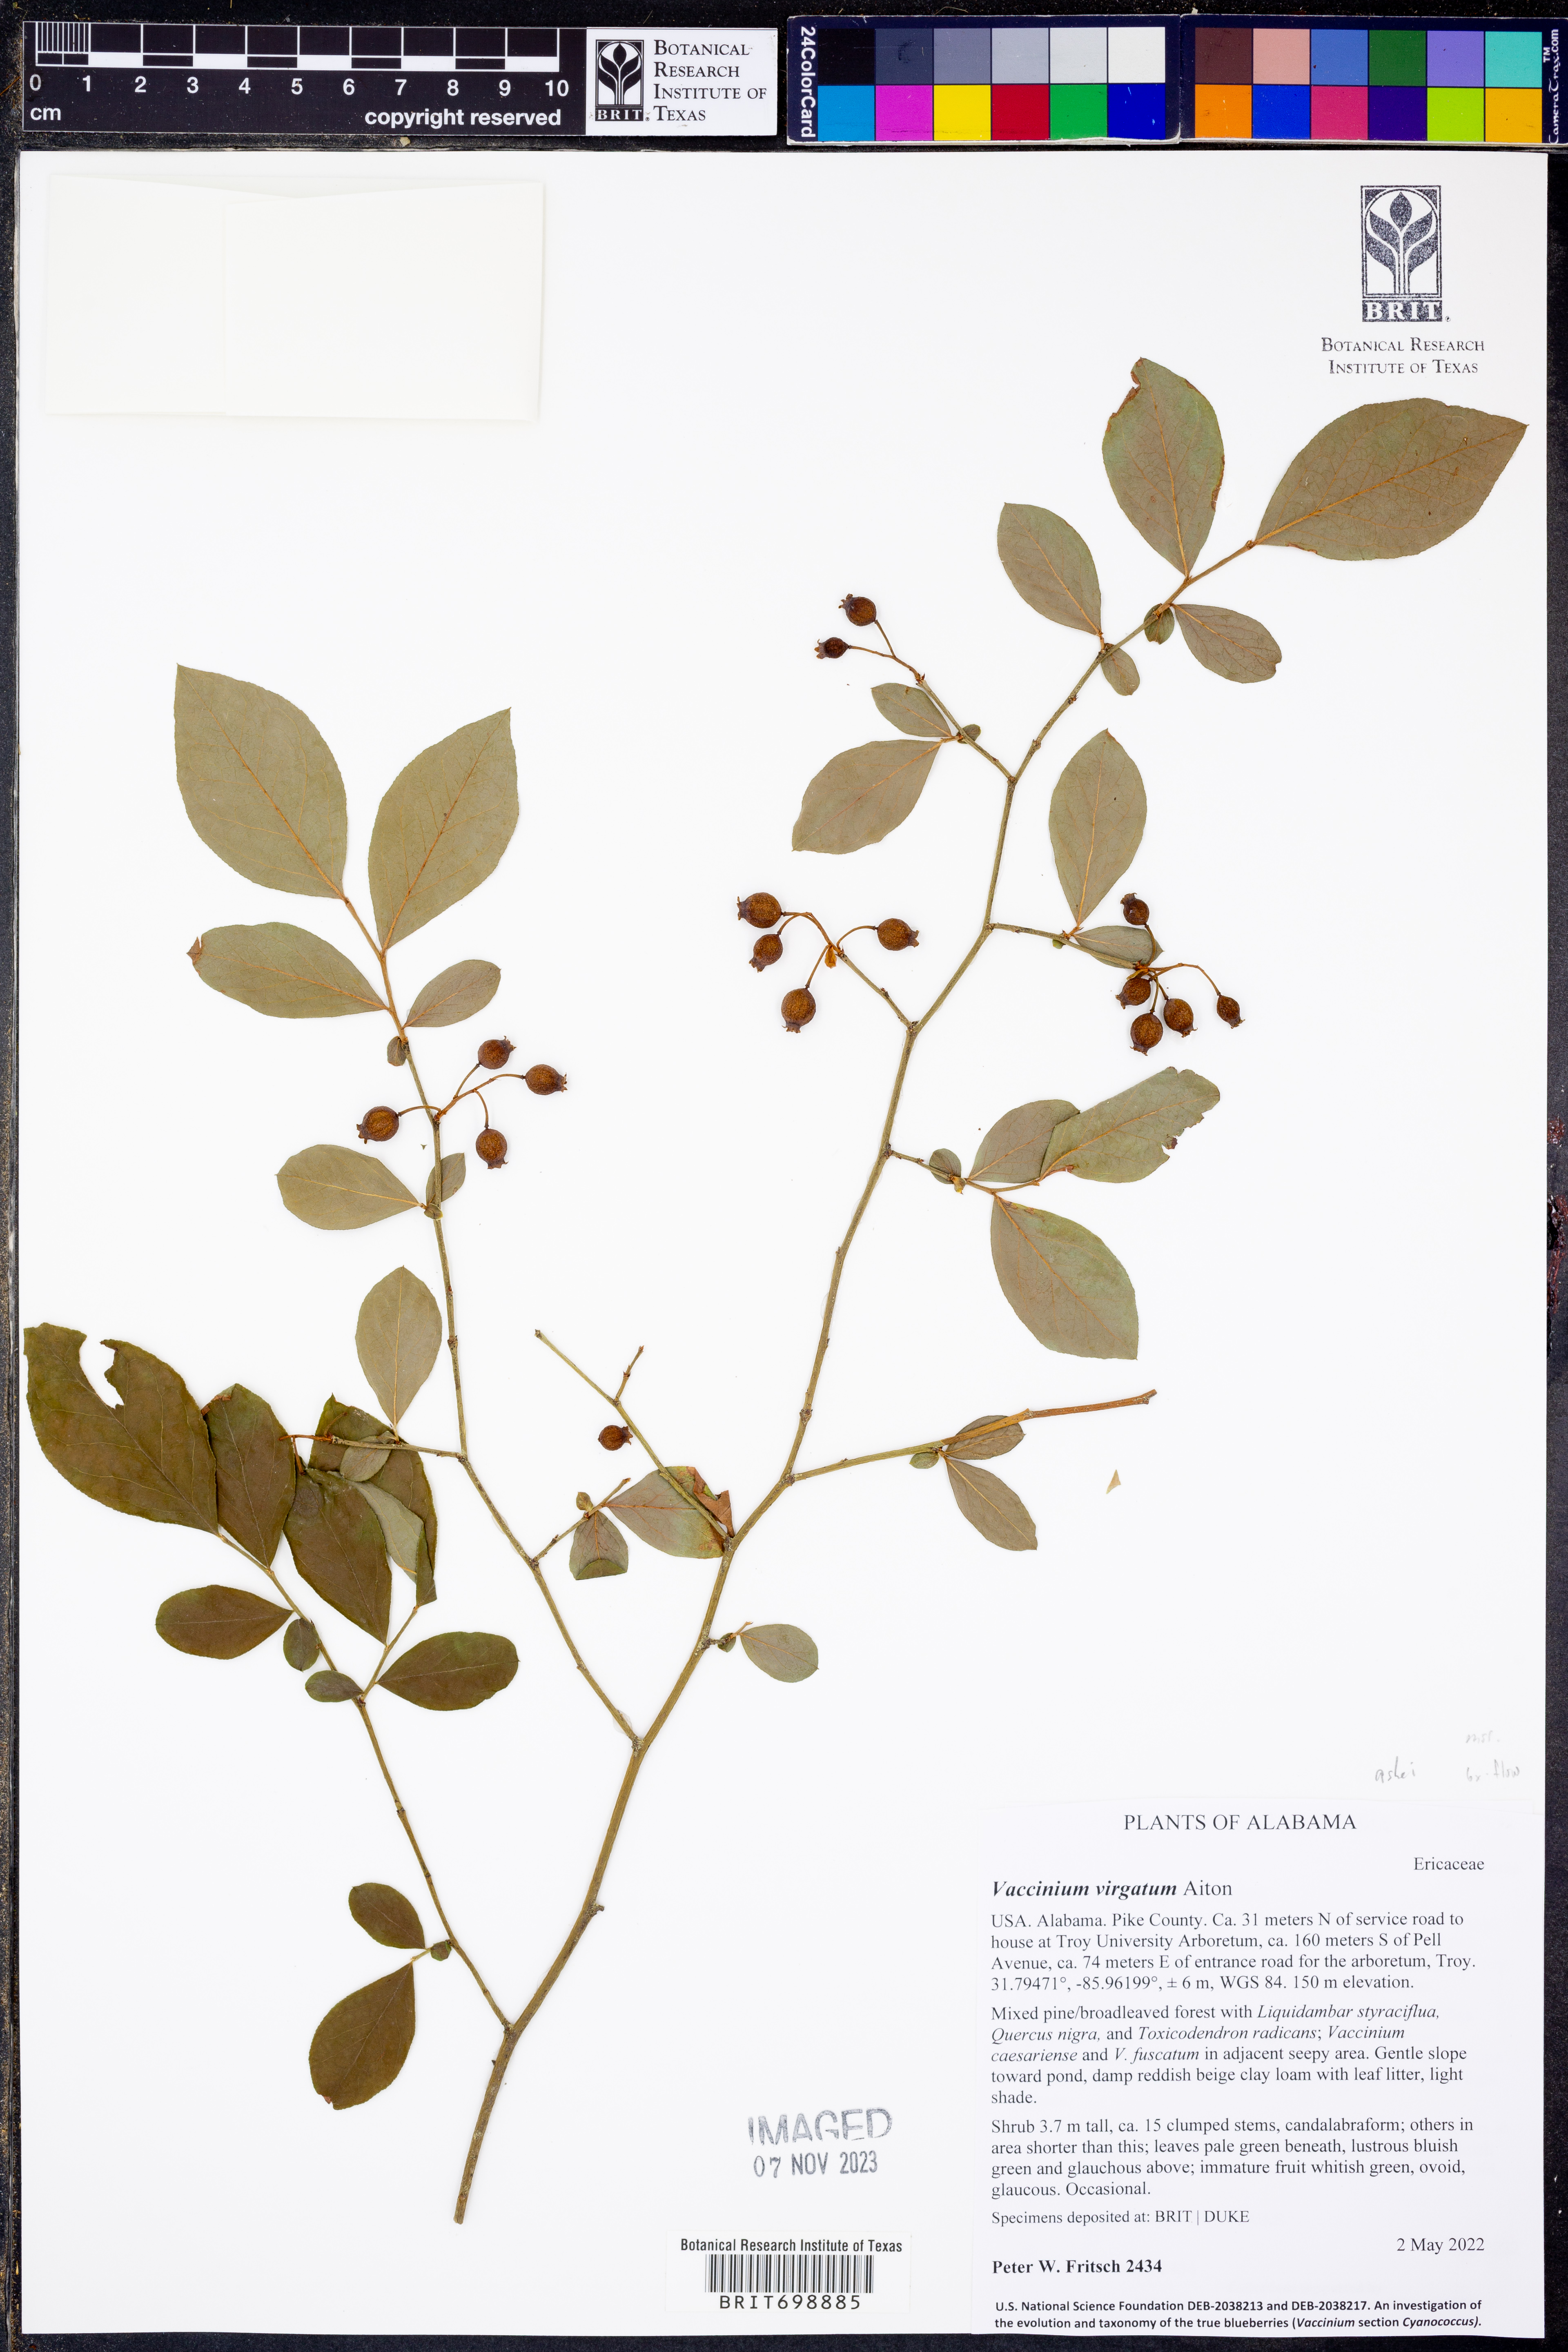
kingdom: Plantae
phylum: Tracheophyta
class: Magnoliopsida
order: Ericales
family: Ericaceae
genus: Vaccinium
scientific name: Vaccinium corymbosum
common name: Blueberry
